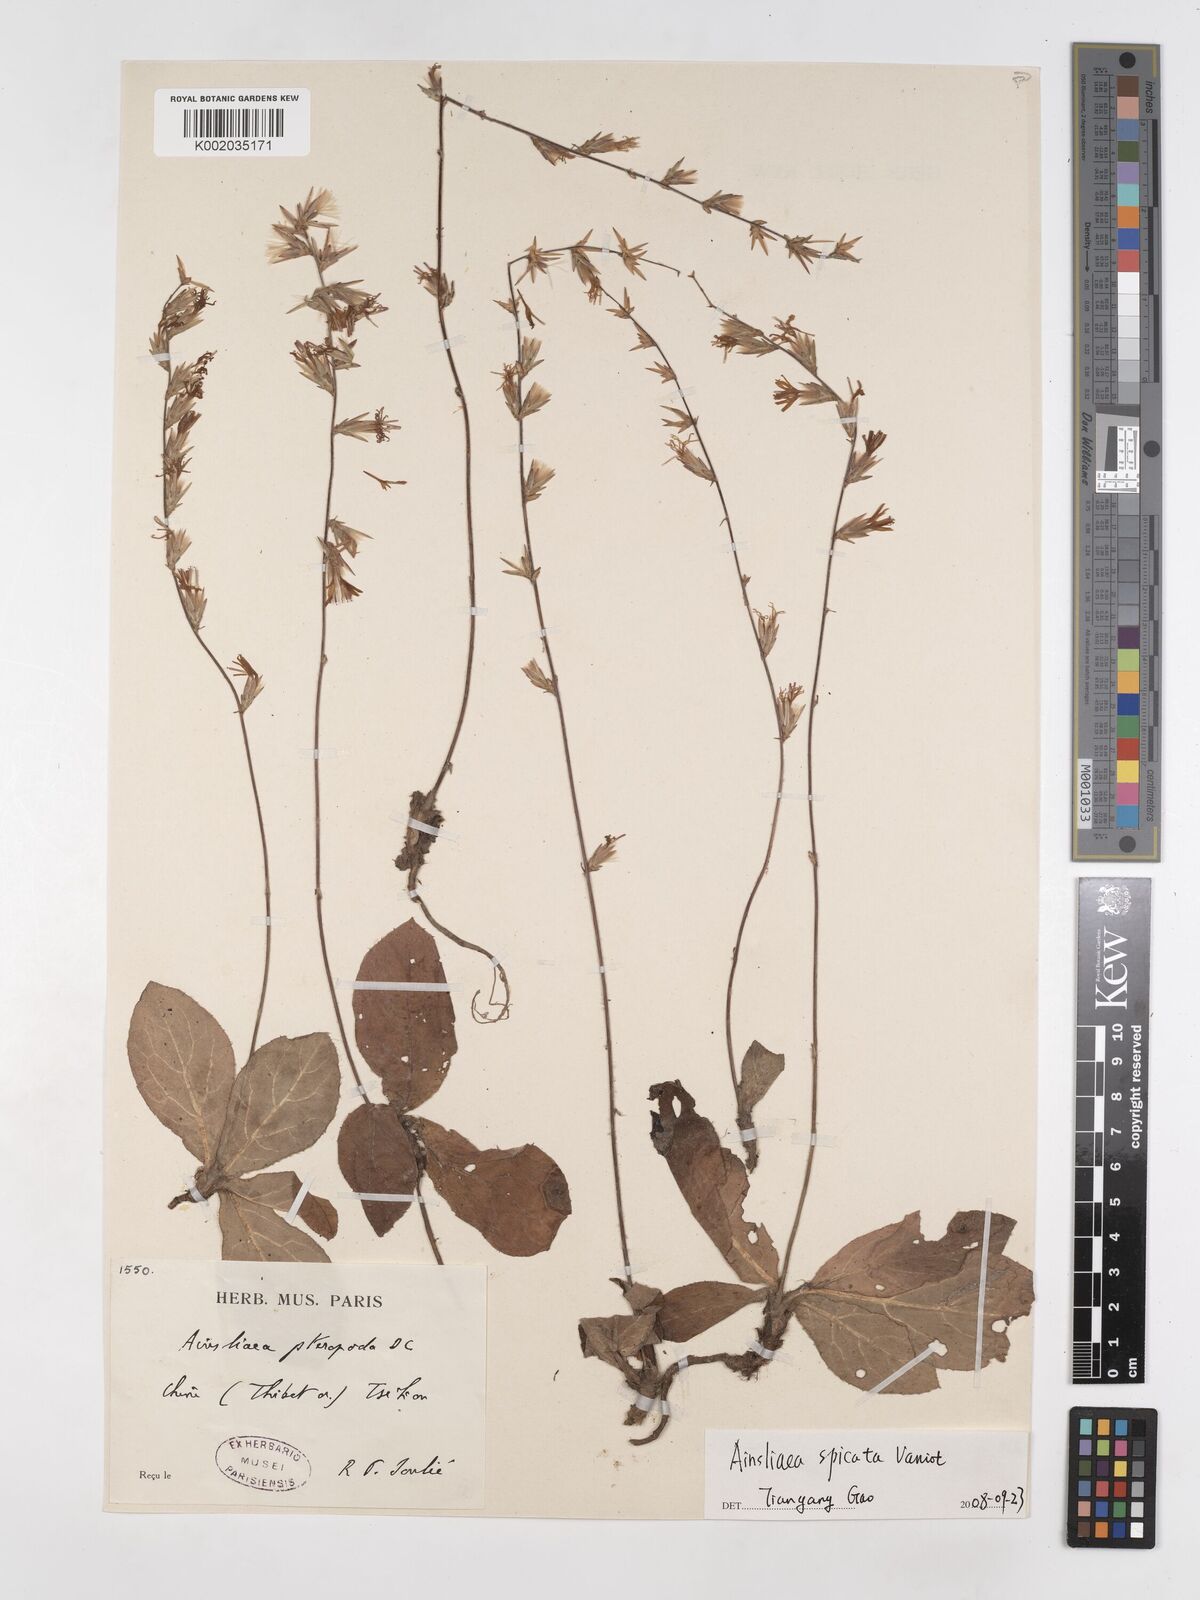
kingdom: Plantae
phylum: Tracheophyta
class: Magnoliopsida
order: Asterales
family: Asteraceae
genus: Ainsliaea
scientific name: Ainsliaea spicata
